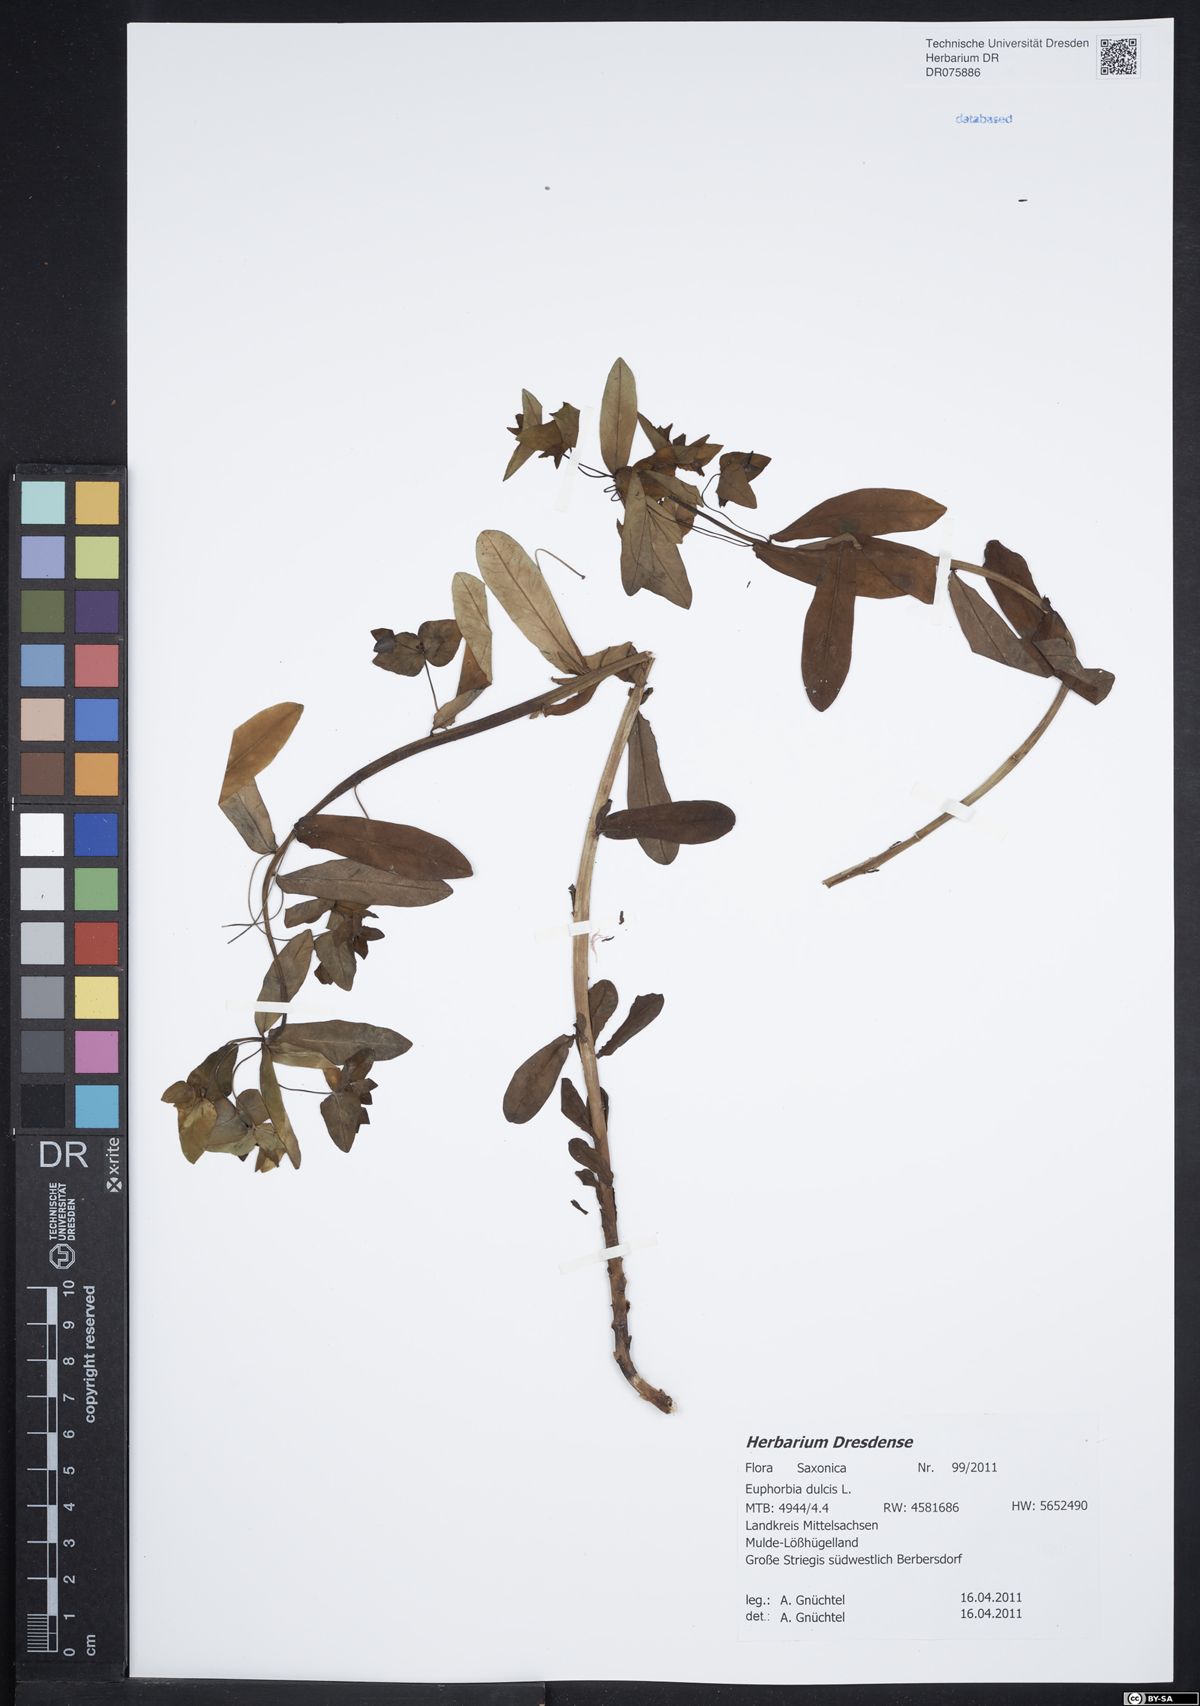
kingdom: Plantae
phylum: Tracheophyta
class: Magnoliopsida
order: Malpighiales
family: Euphorbiaceae
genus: Euphorbia
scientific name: Euphorbia dulcis
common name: Sweet spurge
